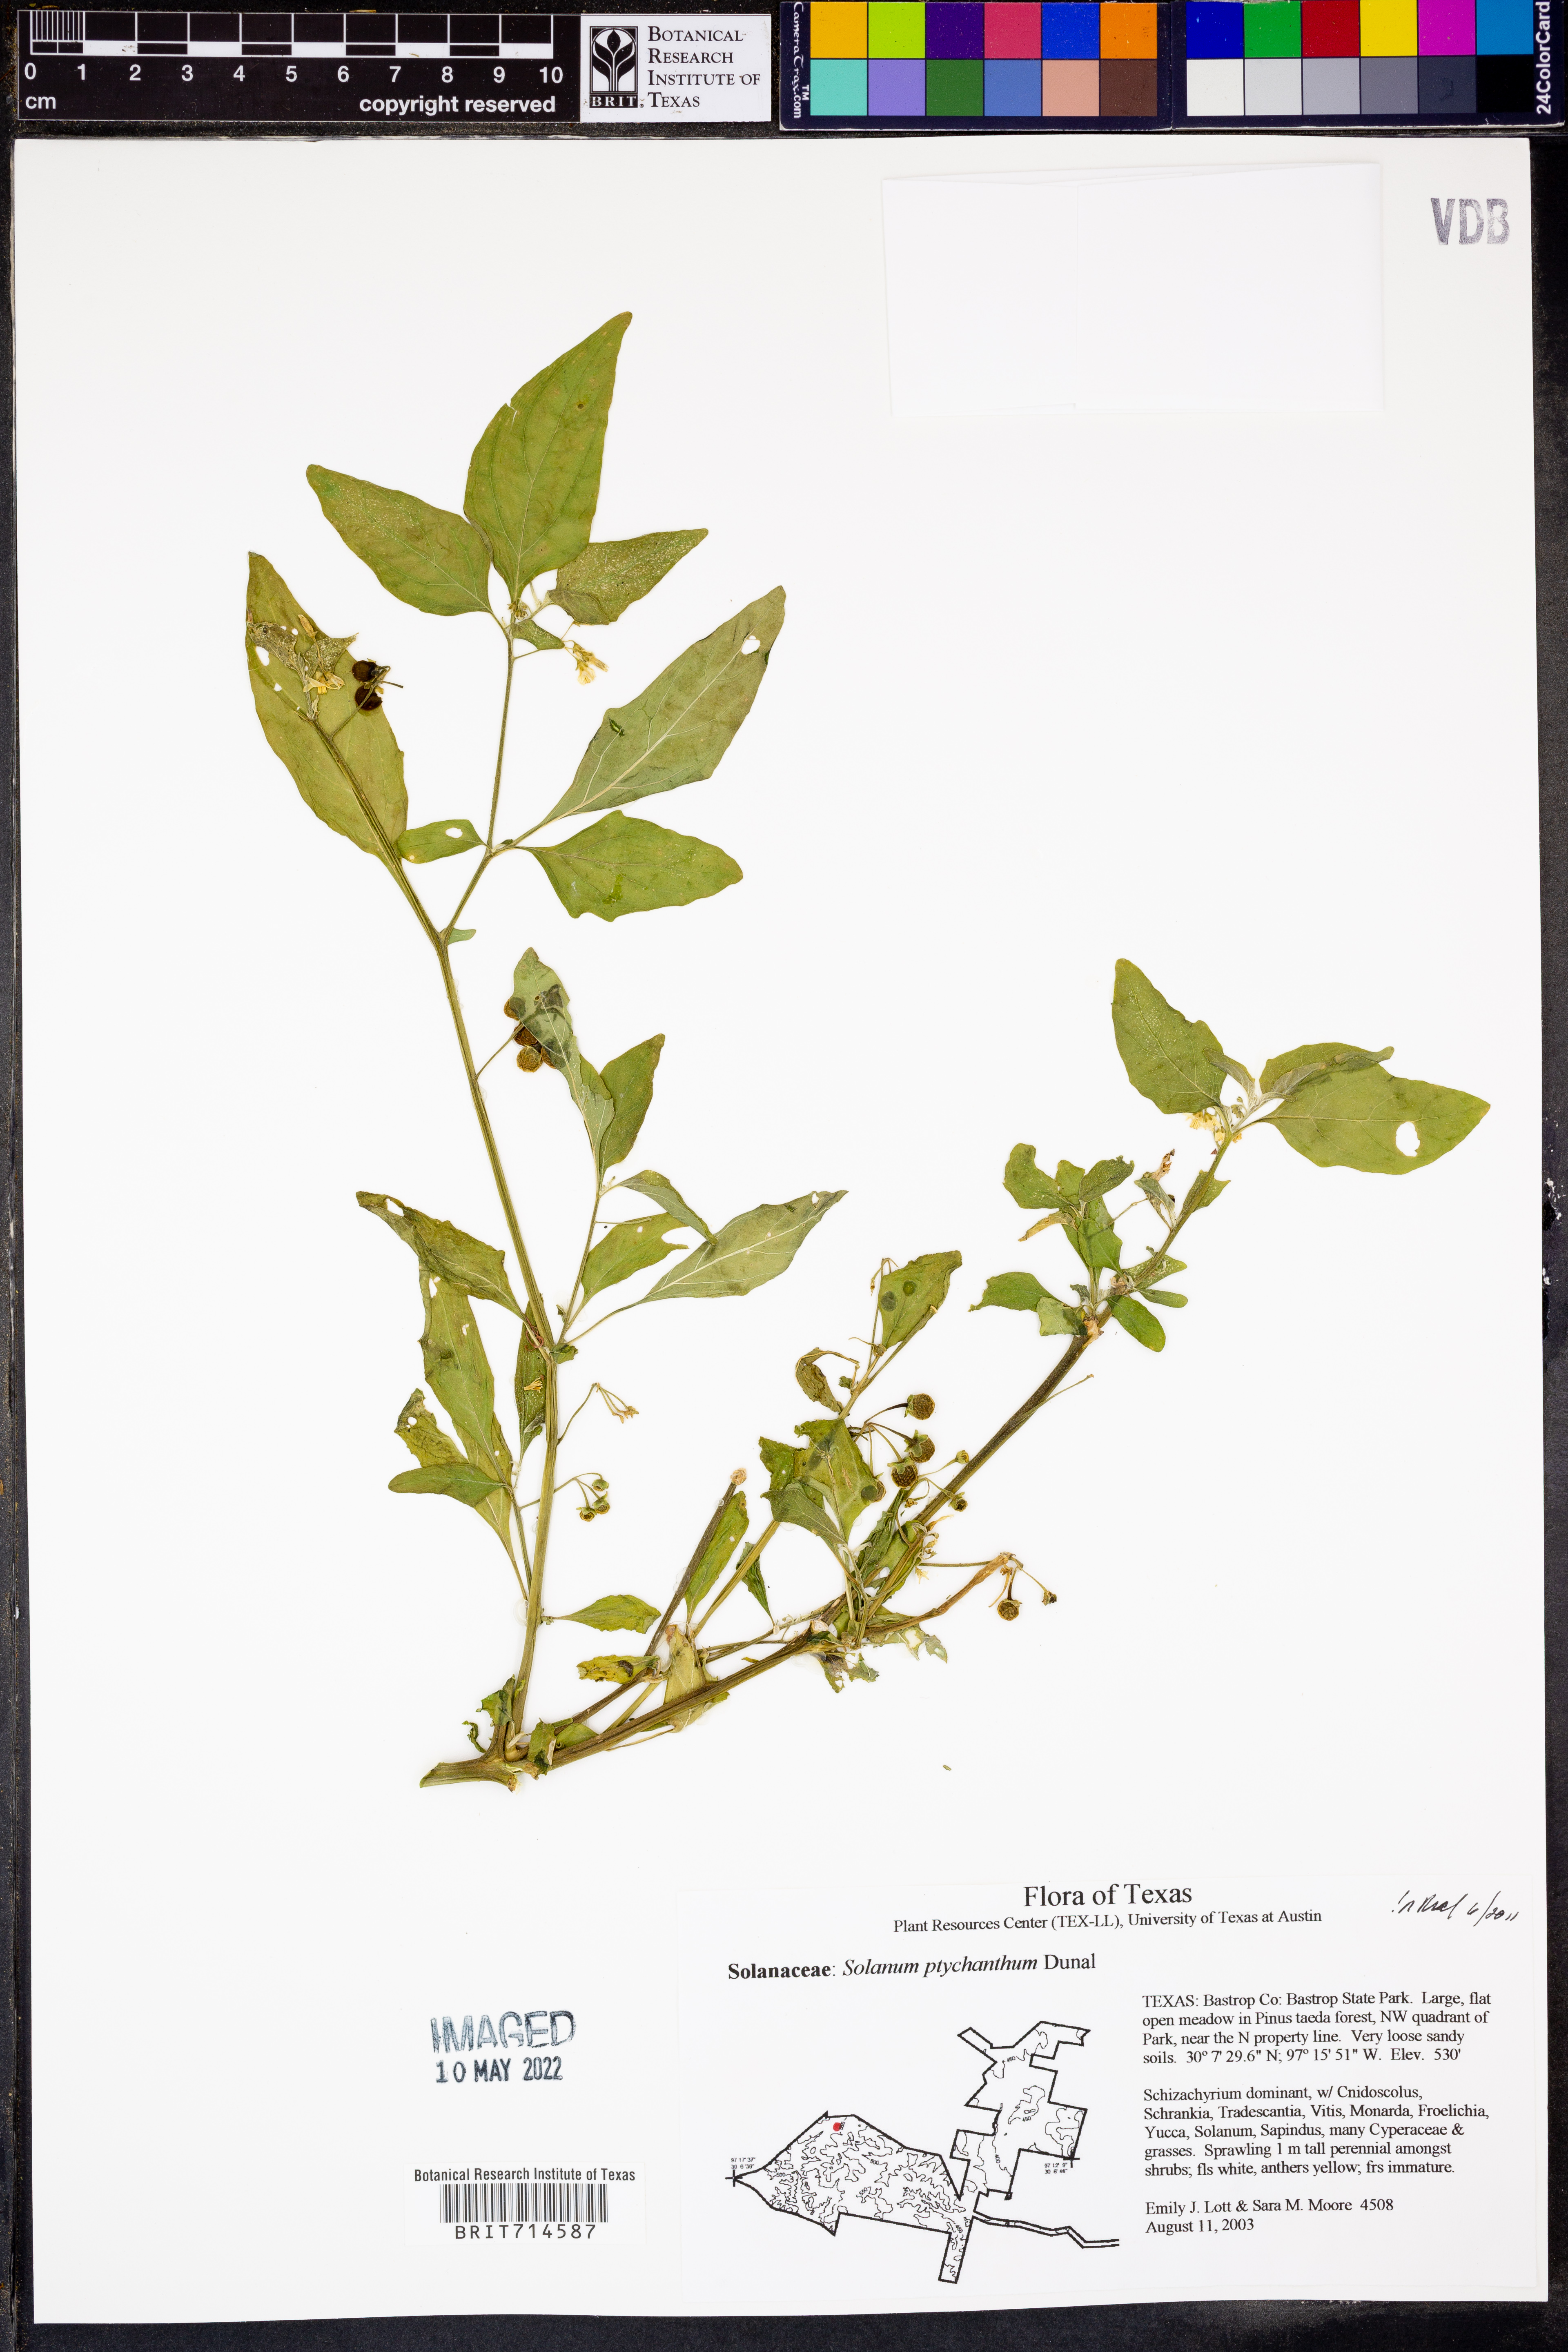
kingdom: Plantae
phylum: Tracheophyta
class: Magnoliopsida
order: Solanales
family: Solanaceae
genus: Solanum
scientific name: Solanum americanum
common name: American black nightshade
